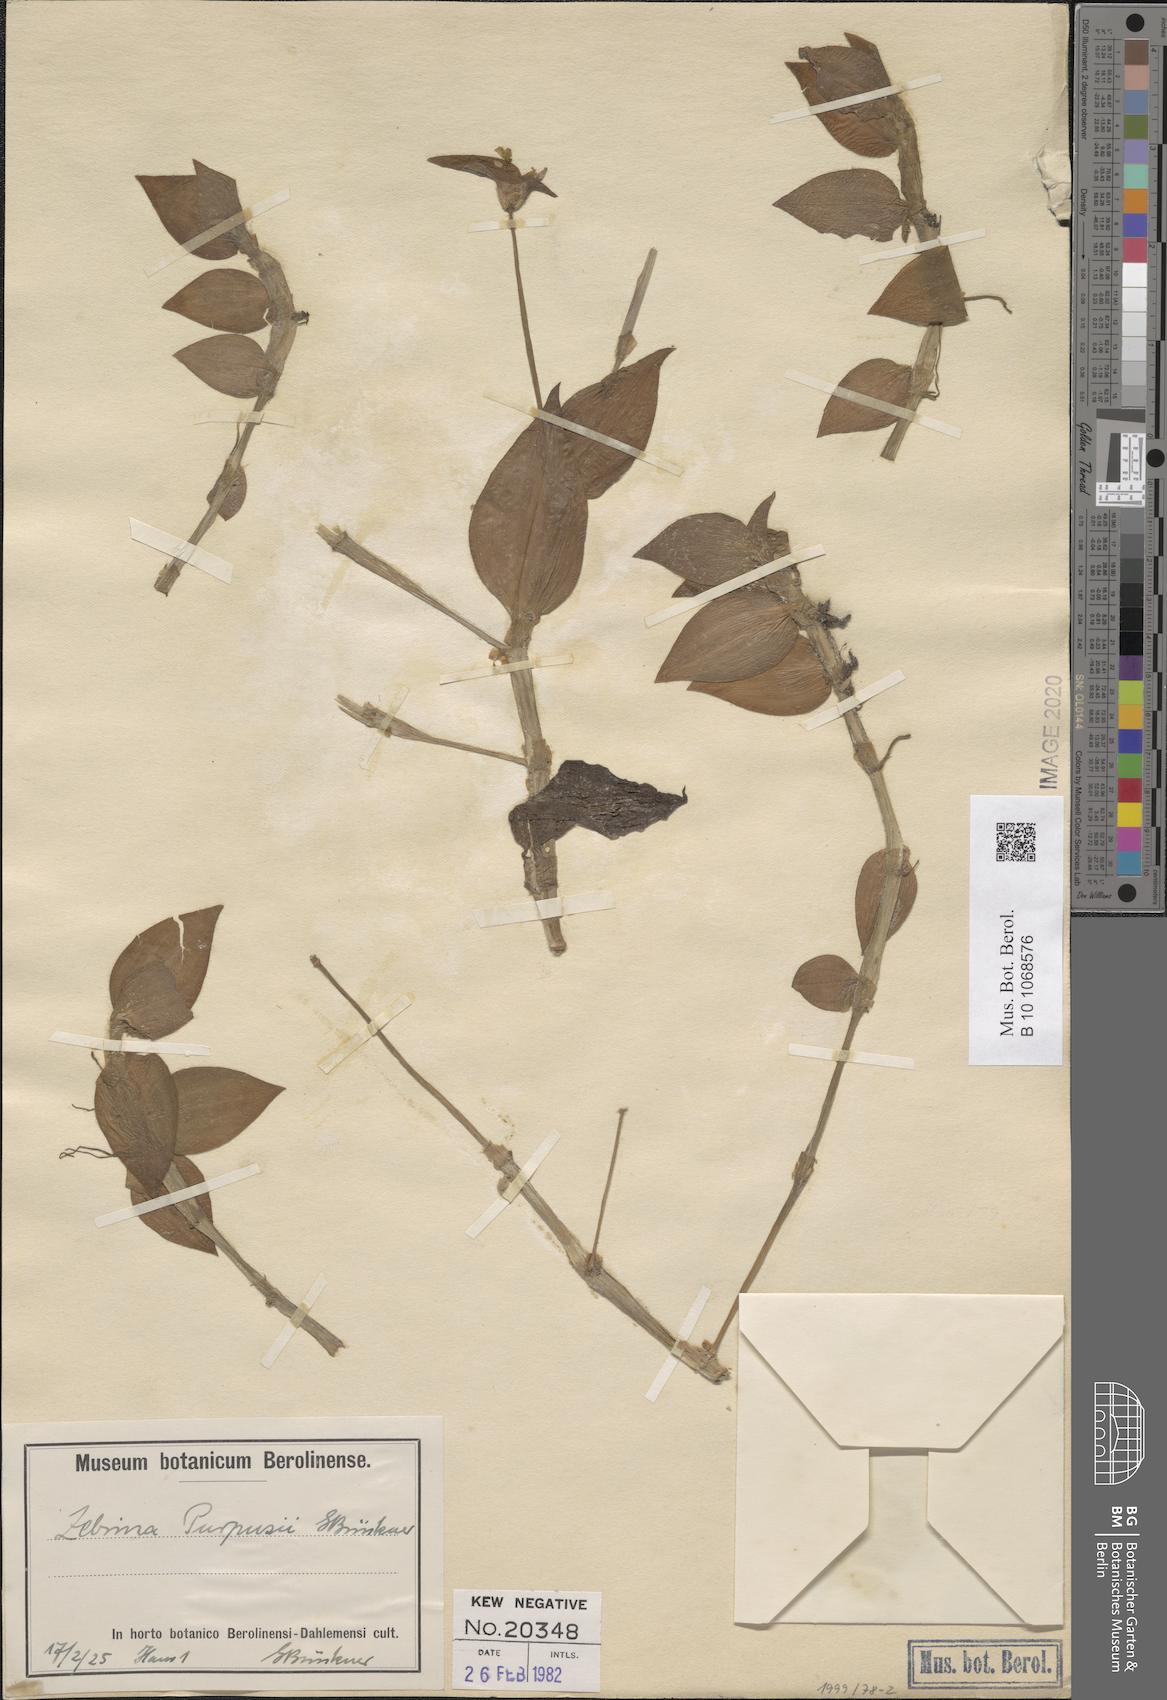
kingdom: Plantae
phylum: Tracheophyta
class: Liliopsida
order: Commelinales
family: Commelinaceae
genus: Tradescantia
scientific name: Tradescantia zebrina
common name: Inchplant
